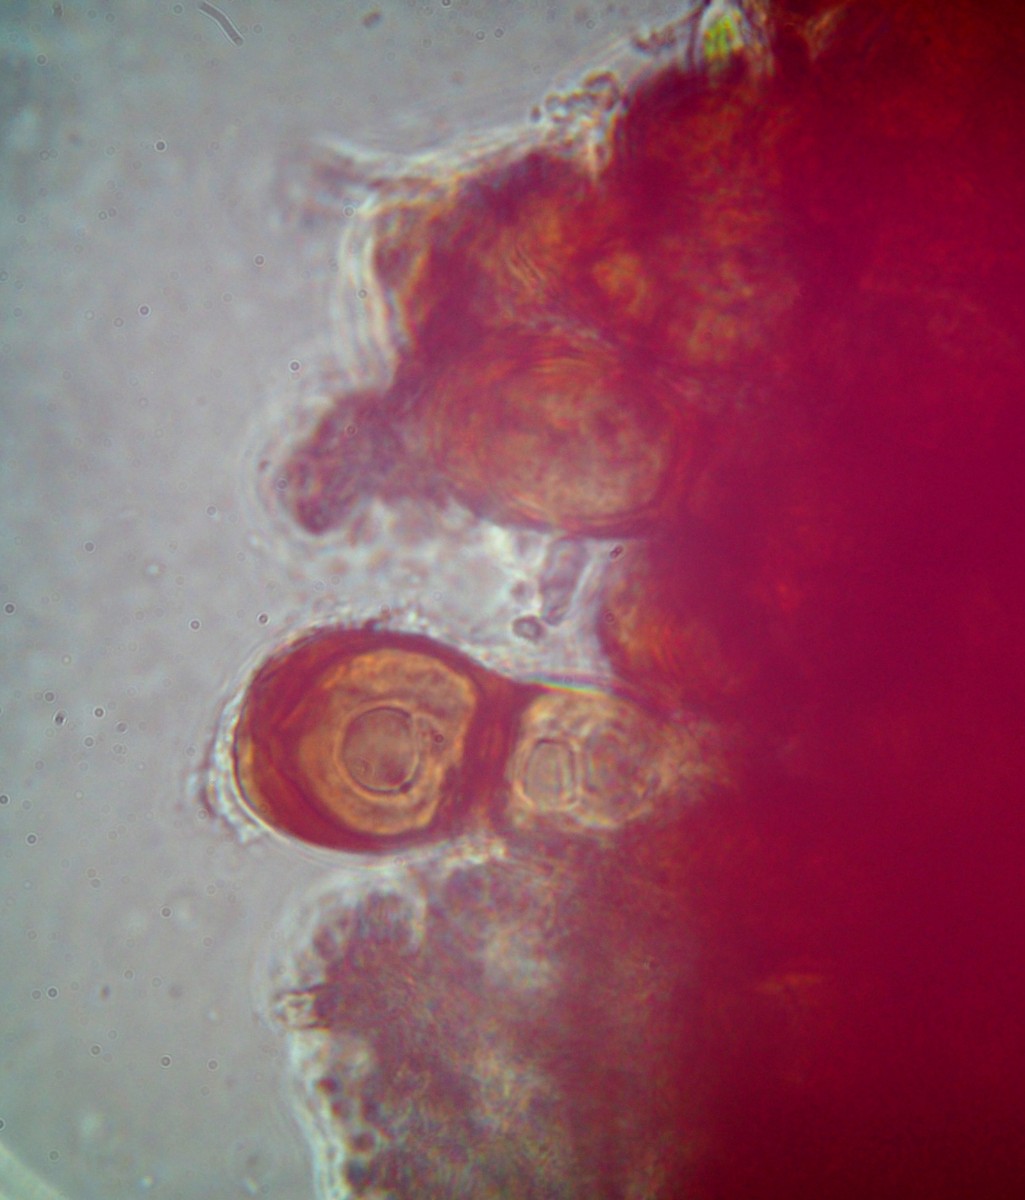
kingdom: Fungi
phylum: Basidiomycota
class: Pucciniomycetes
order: Pucciniales
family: Pucciniaceae
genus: Puccinia
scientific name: Puccinia
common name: tvecellerust
